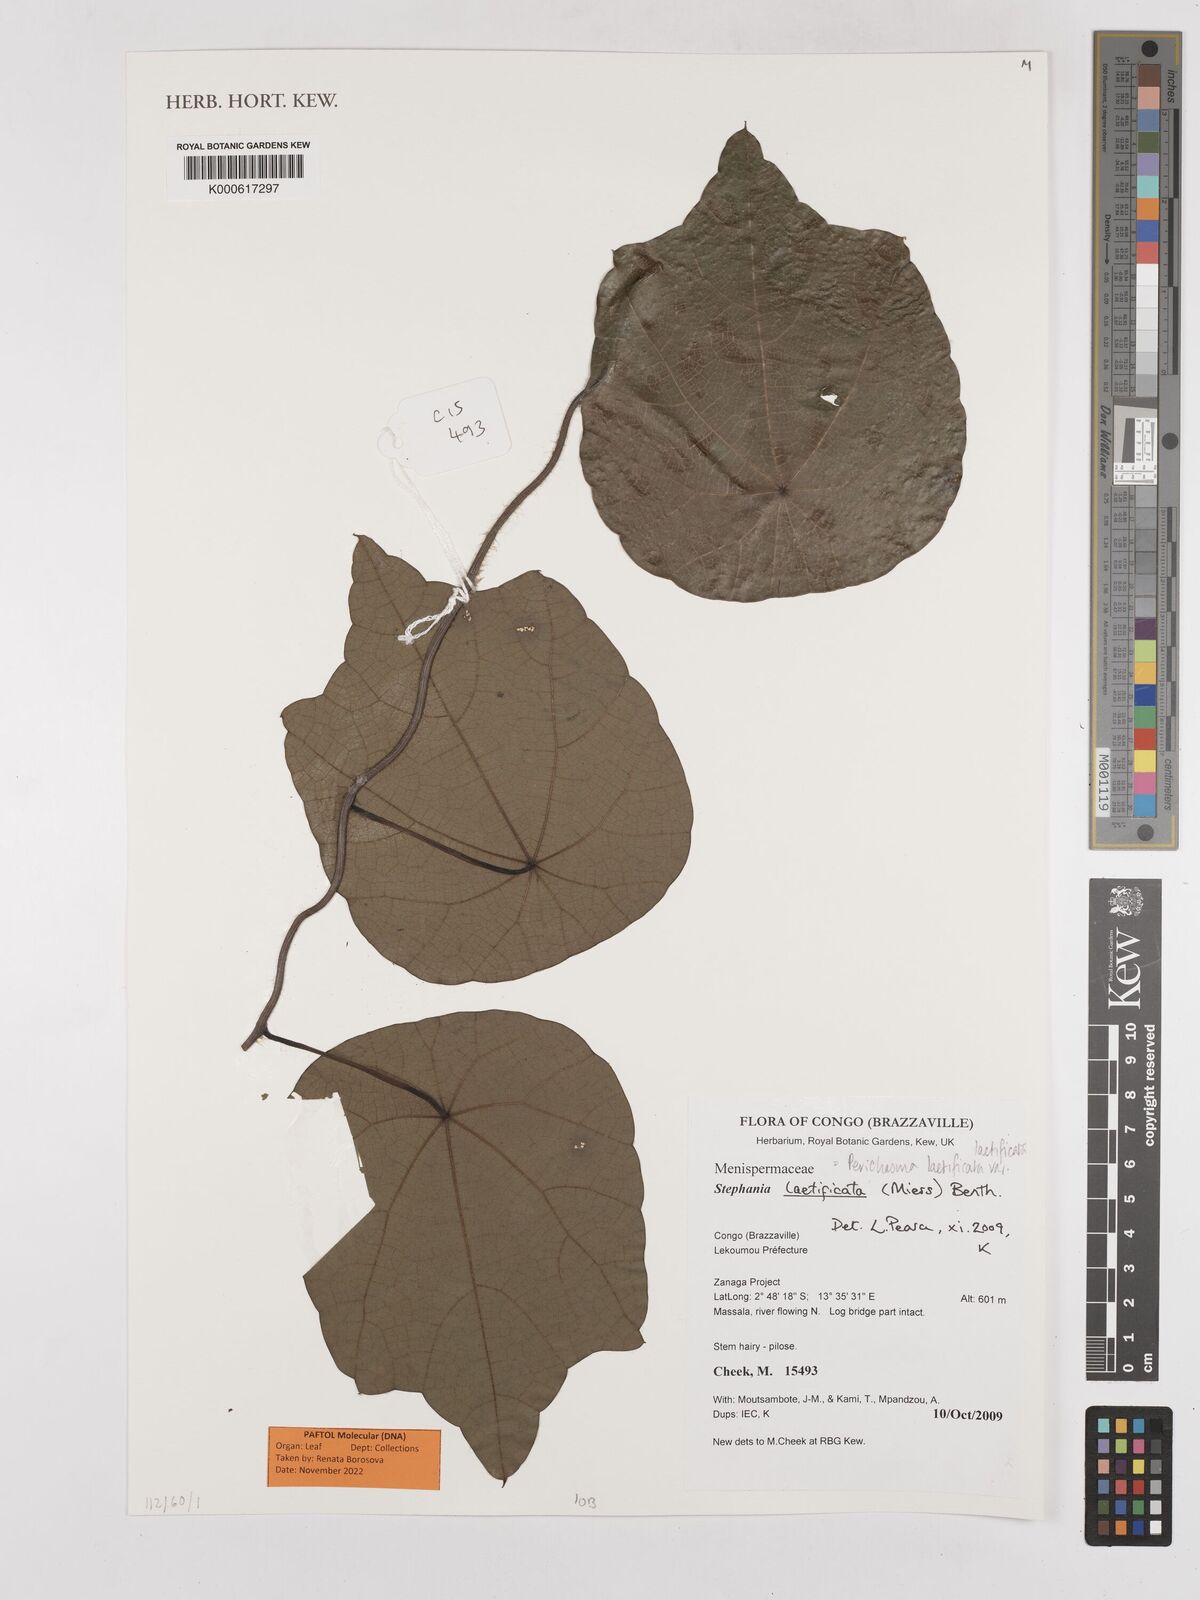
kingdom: Plantae
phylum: Tracheophyta
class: Magnoliopsida
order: Ranunculales
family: Menispermaceae
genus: Perichasma
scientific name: Perichasma laetificata
